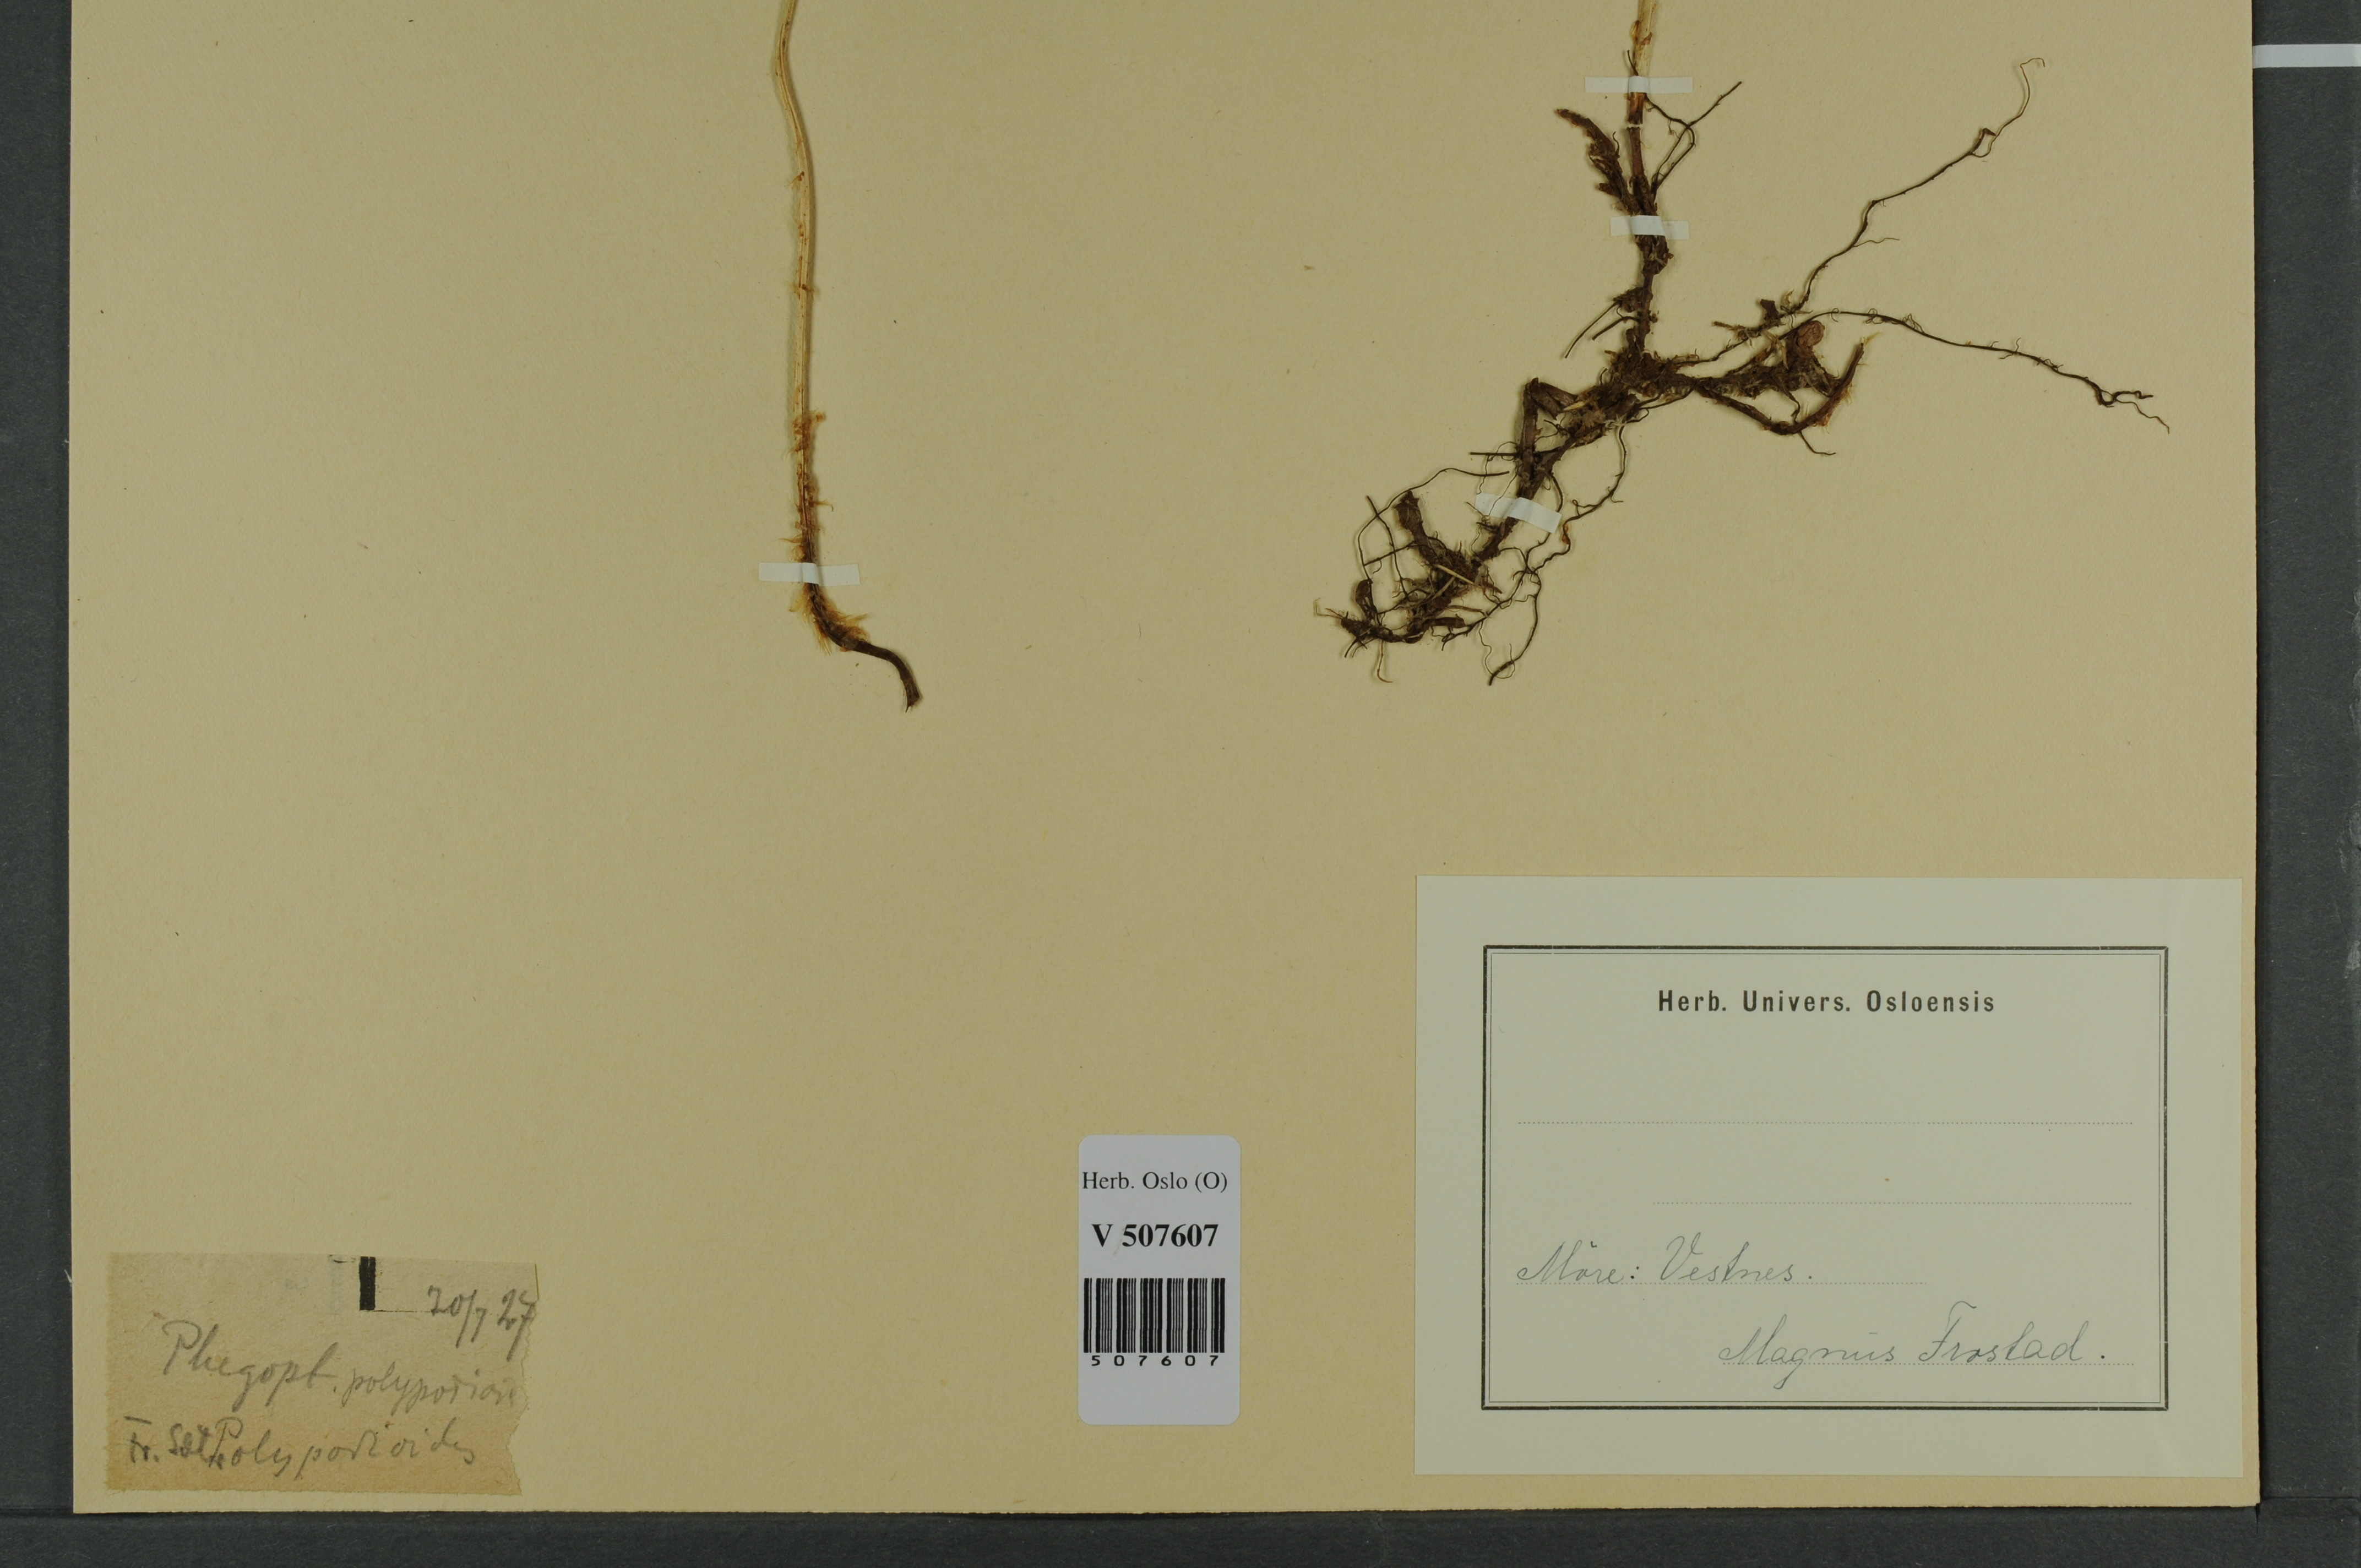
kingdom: Plantae
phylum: Tracheophyta
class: Polypodiopsida
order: Polypodiales
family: Thelypteridaceae
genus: Phegopteris
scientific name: Phegopteris connectilis
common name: Beech fern
